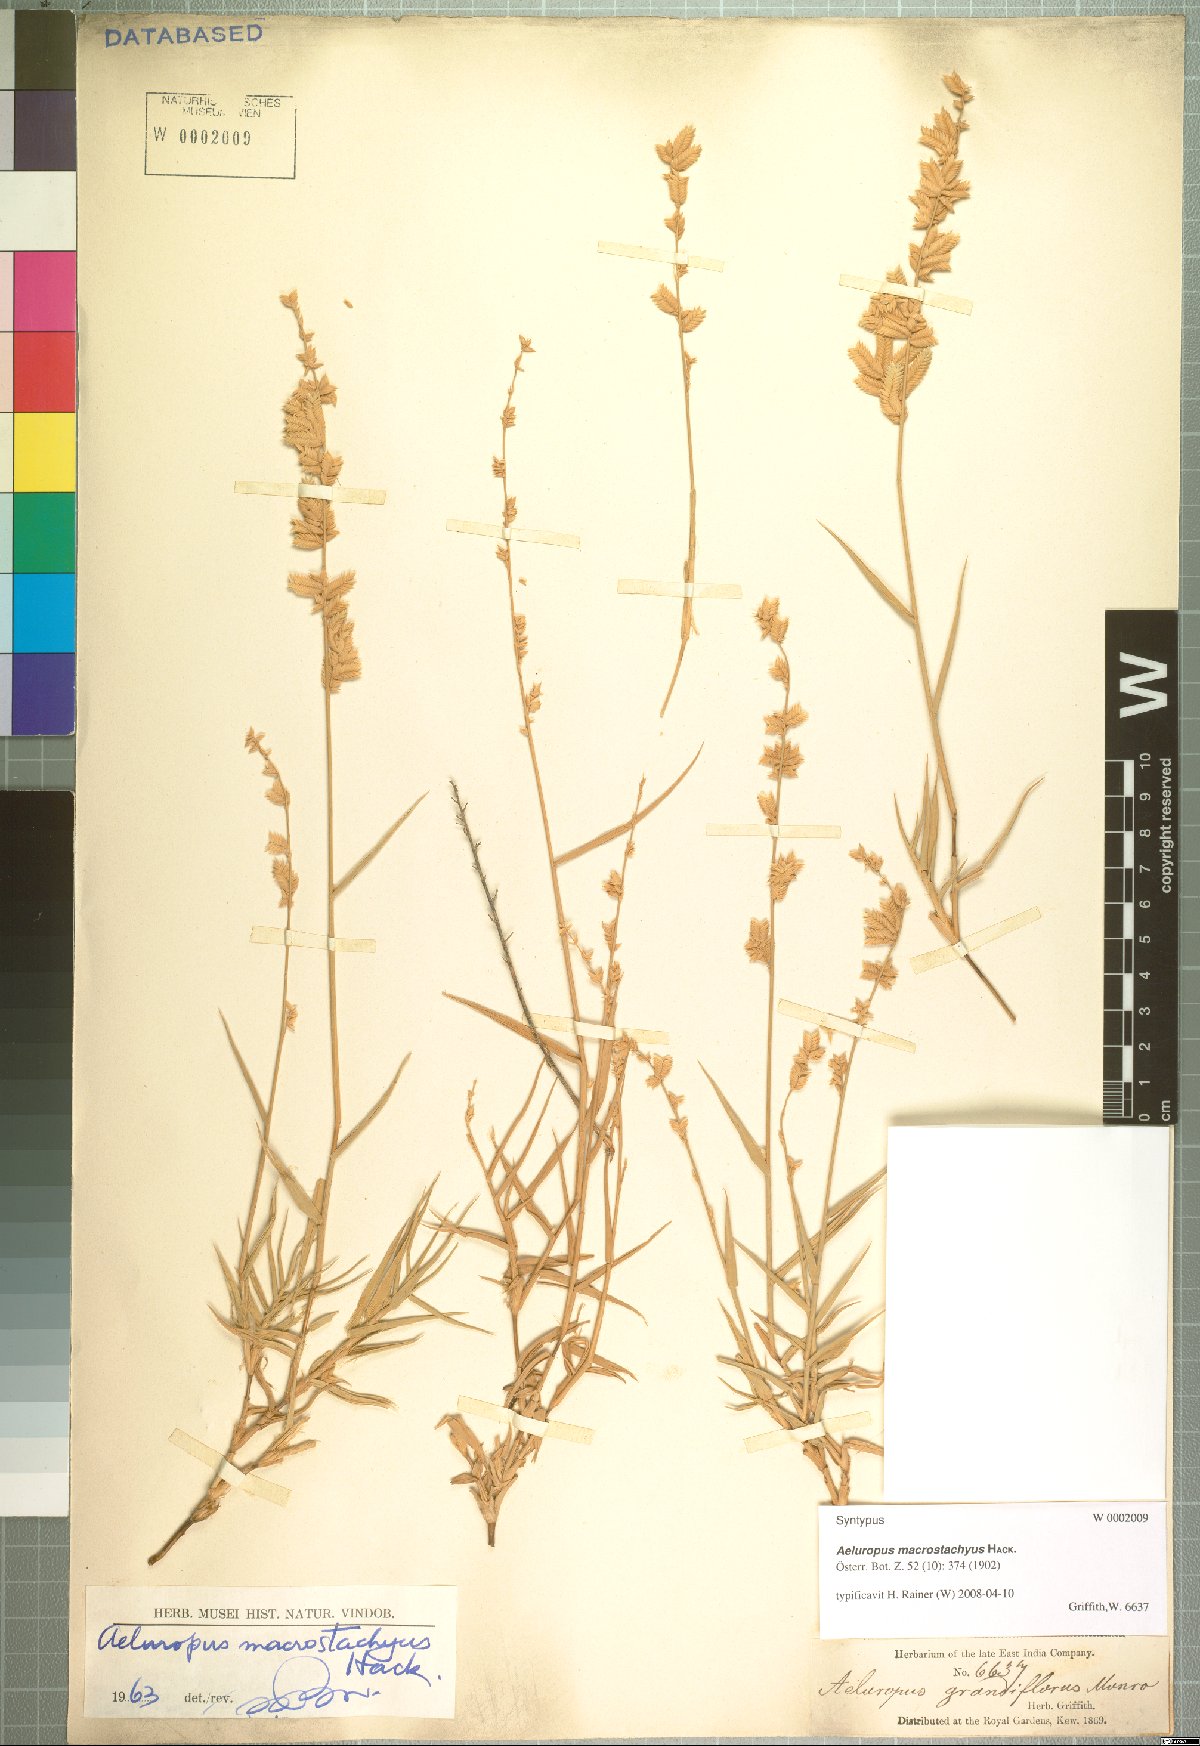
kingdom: Plantae
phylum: Tracheophyta
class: Liliopsida
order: Poales
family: Poaceae
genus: Aeluropus
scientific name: Aeluropus macrostachyus
